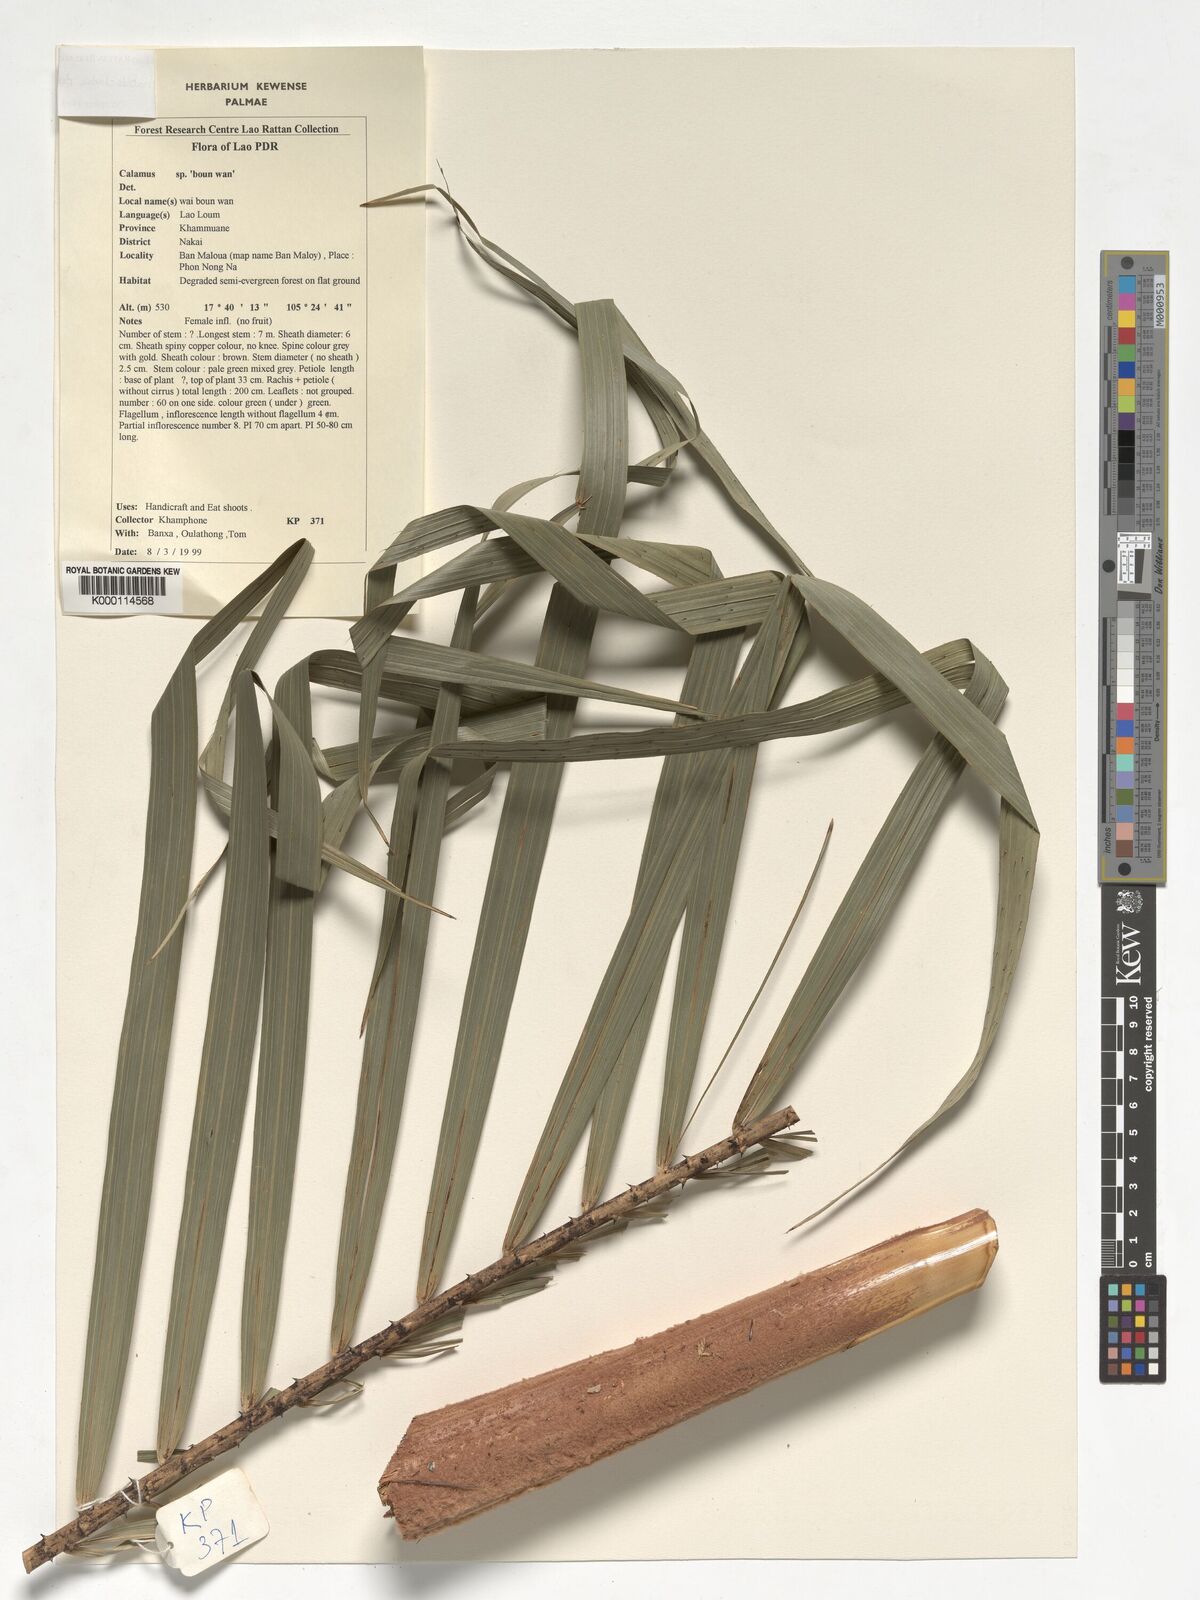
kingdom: Plantae
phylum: Tracheophyta
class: Liliopsida
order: Arecales
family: Arecaceae
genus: Calamus
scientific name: Calamus rhabdocladus
